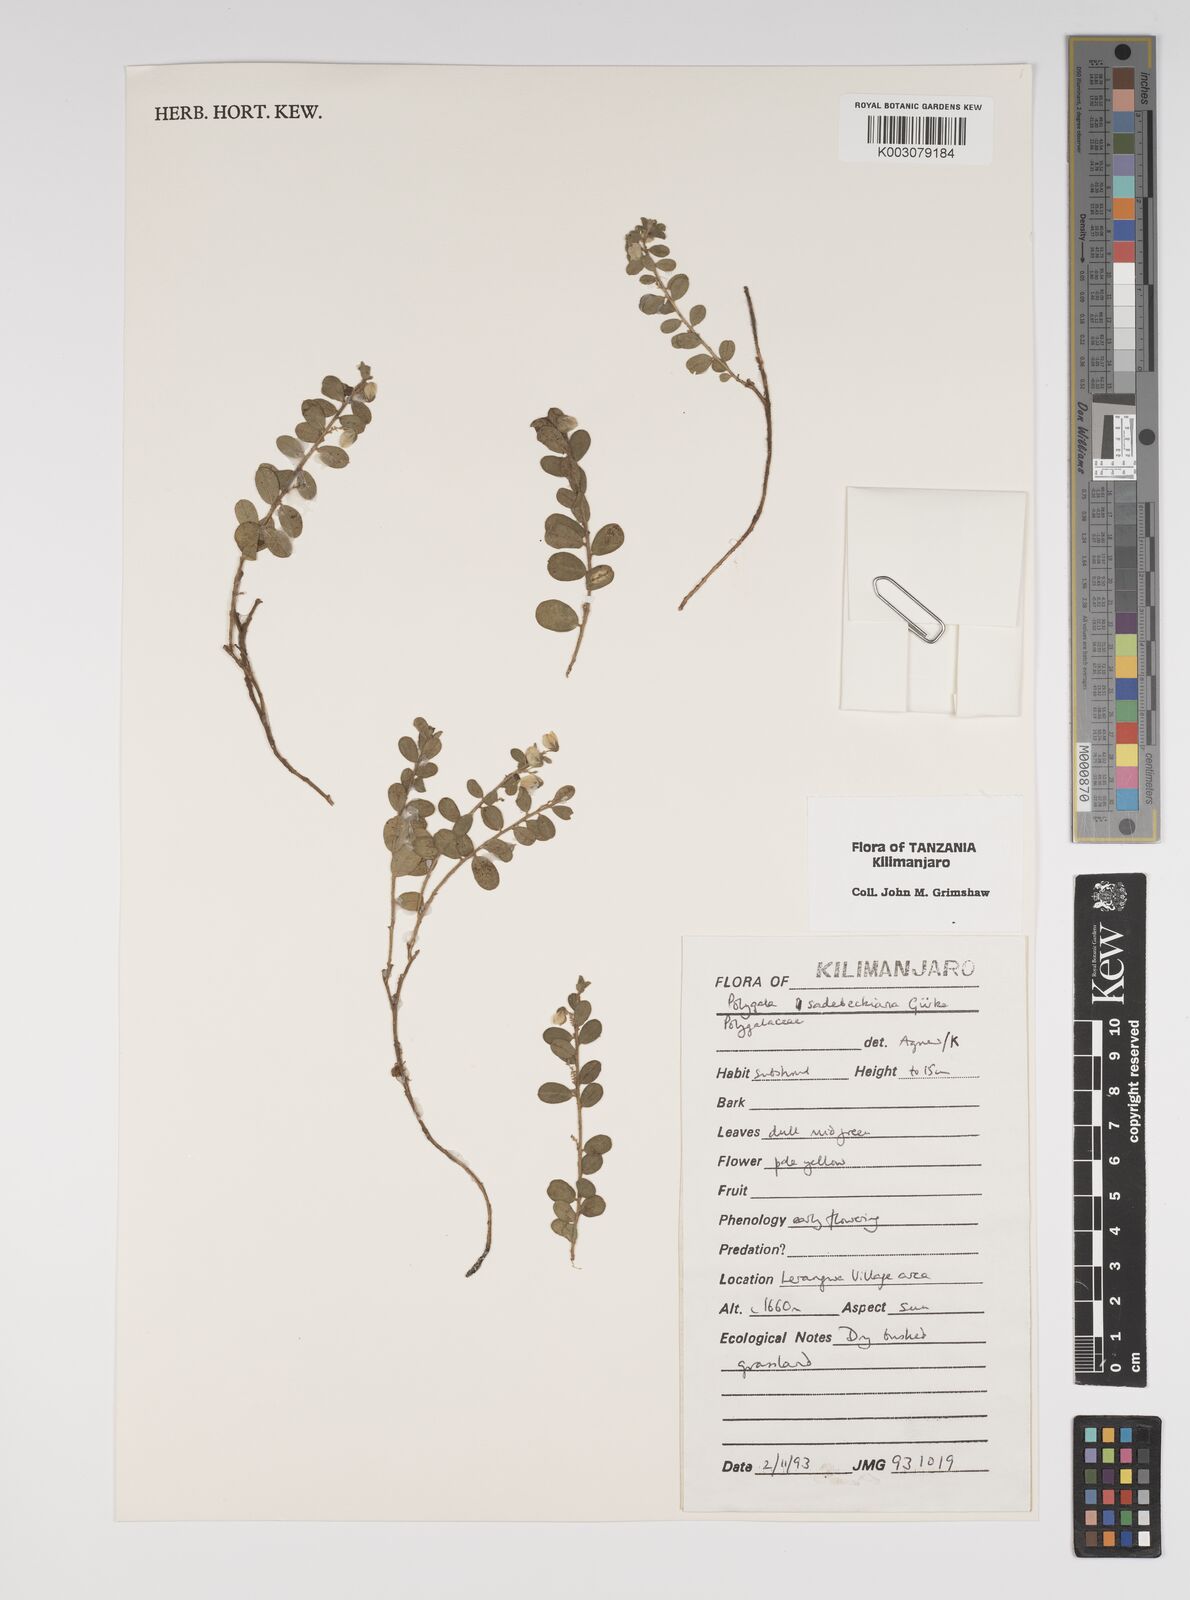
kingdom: Plantae
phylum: Tracheophyta
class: Magnoliopsida
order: Fabales
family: Polygalaceae
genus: Polygala
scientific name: Polygala sadebeckiana
